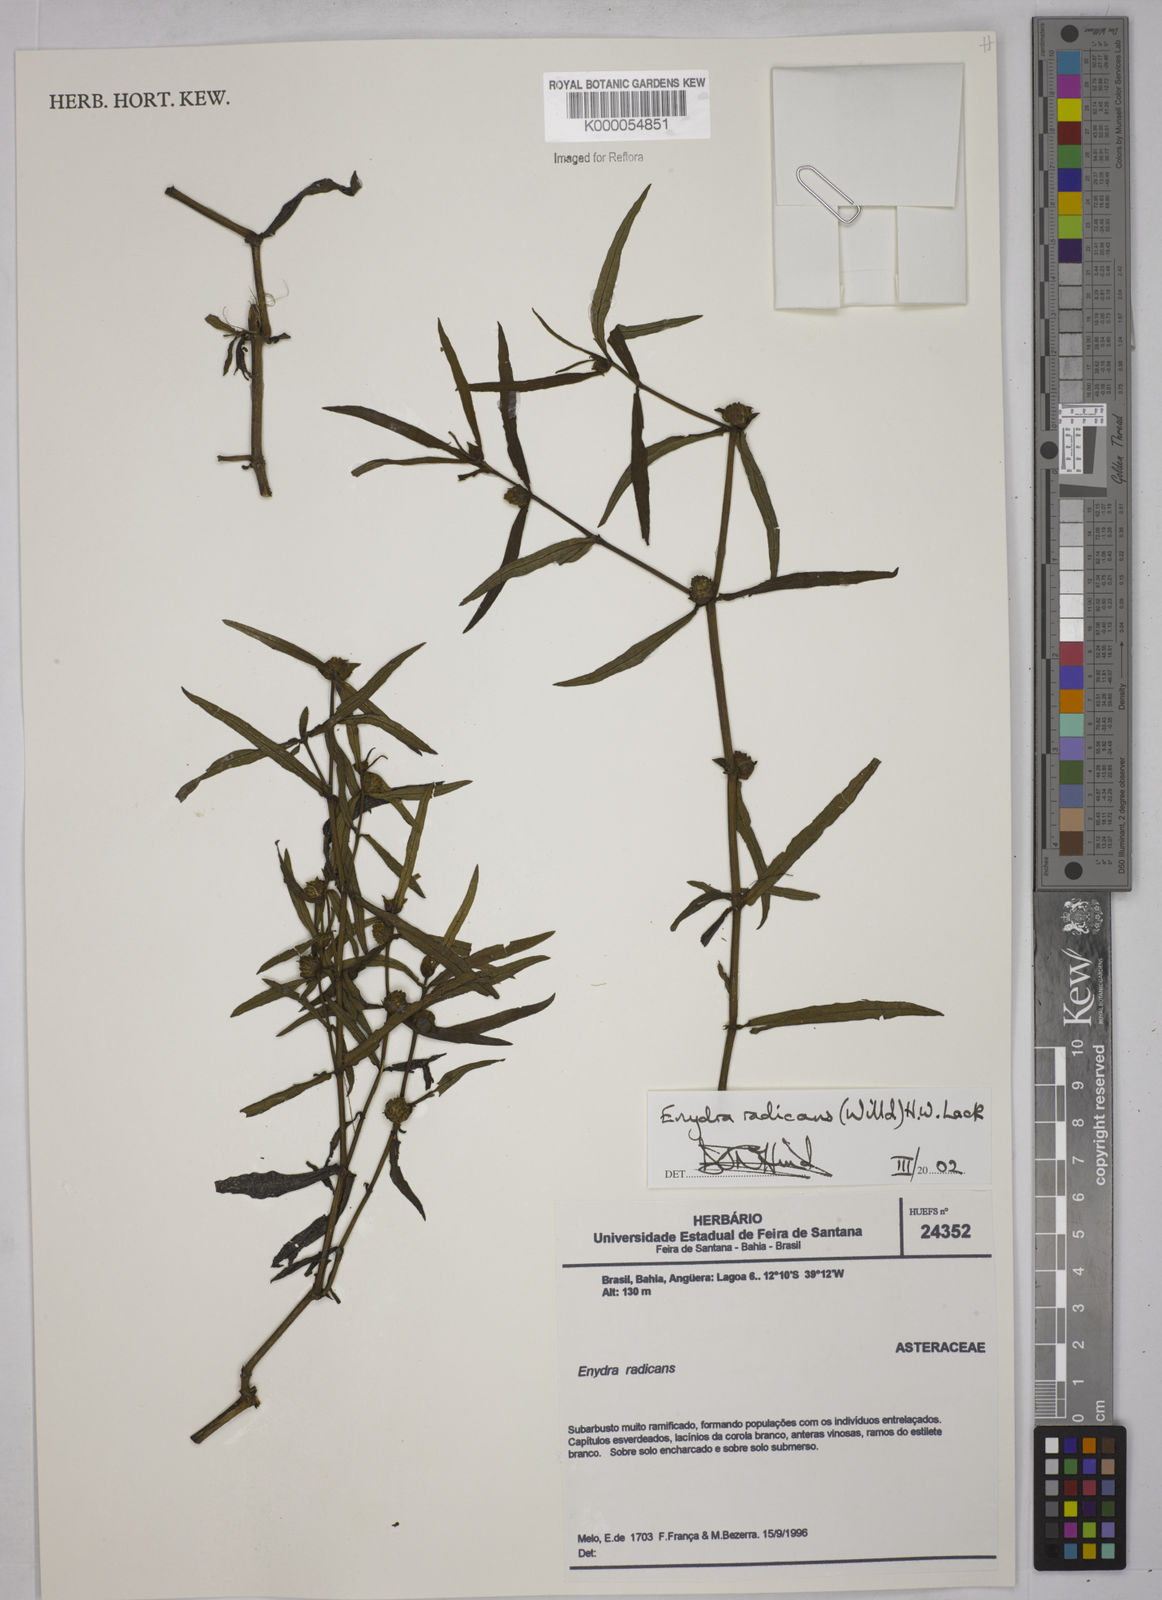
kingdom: Plantae
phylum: Tracheophyta
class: Magnoliopsida
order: Asterales
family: Asteraceae
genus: Enydra
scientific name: Enydra radicans
